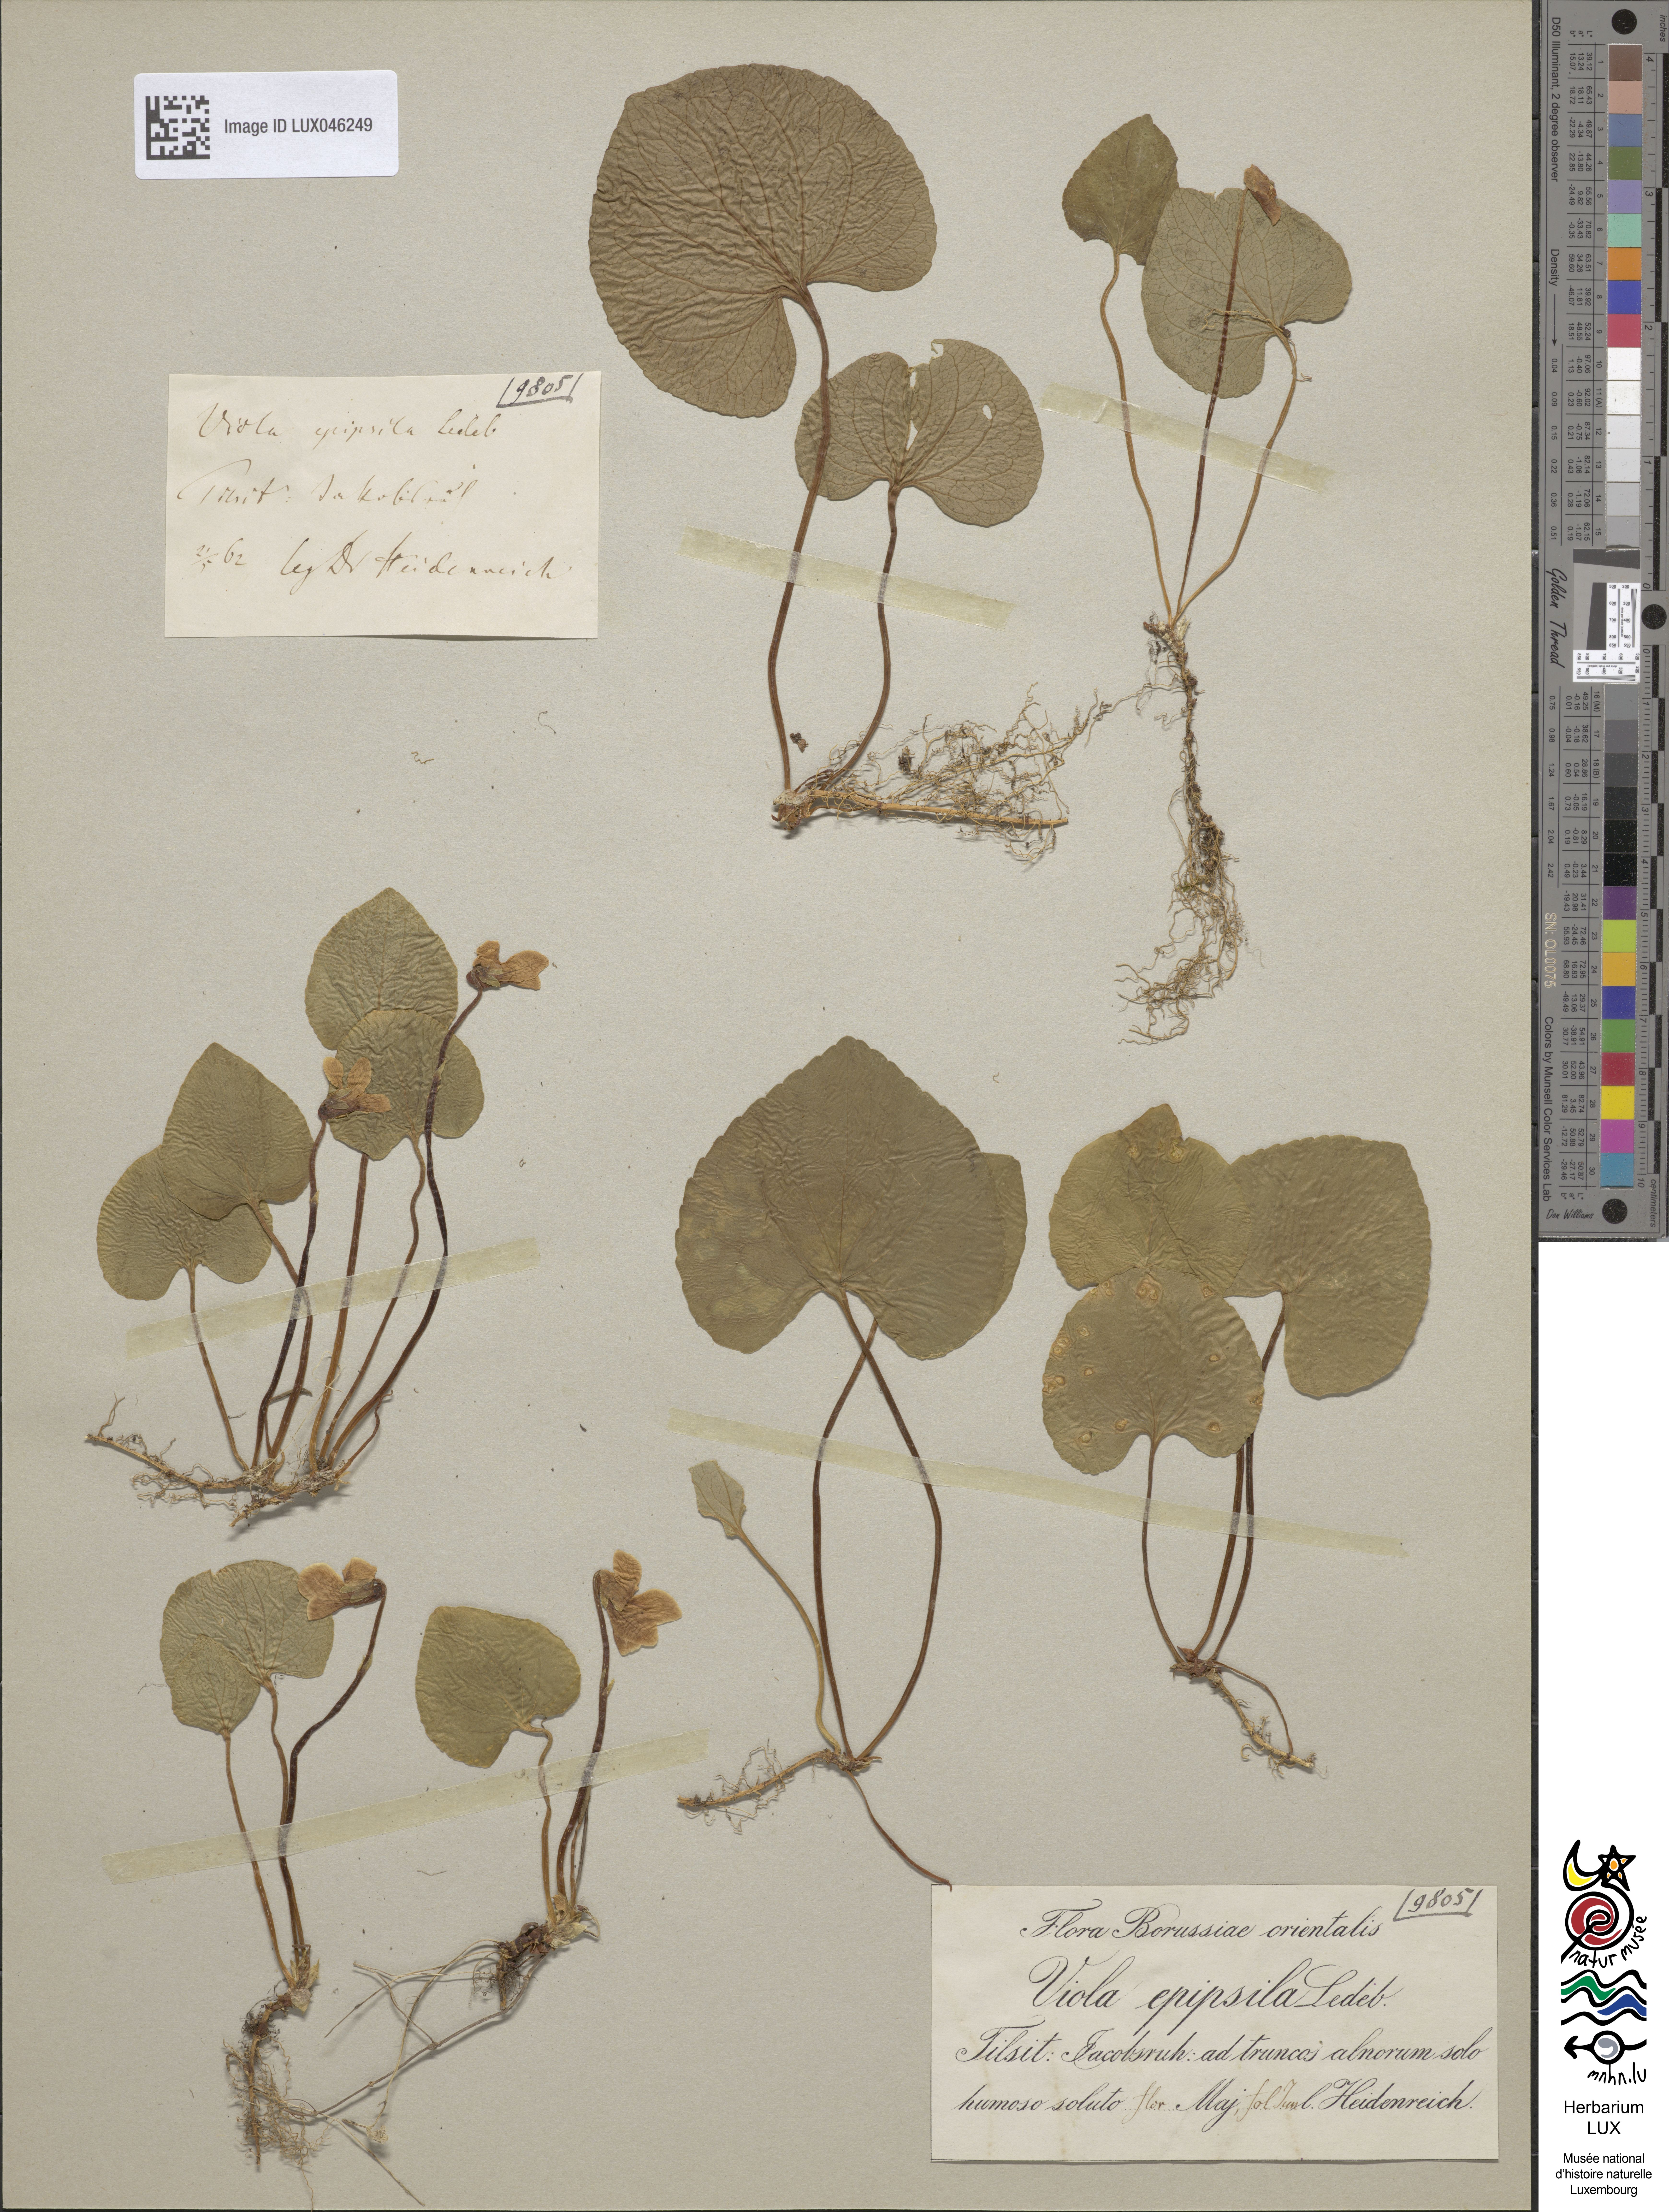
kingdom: Plantae
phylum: Tracheophyta
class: Magnoliopsida
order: Malpighiales
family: Violaceae
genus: Viola
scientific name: Viola epipsila
